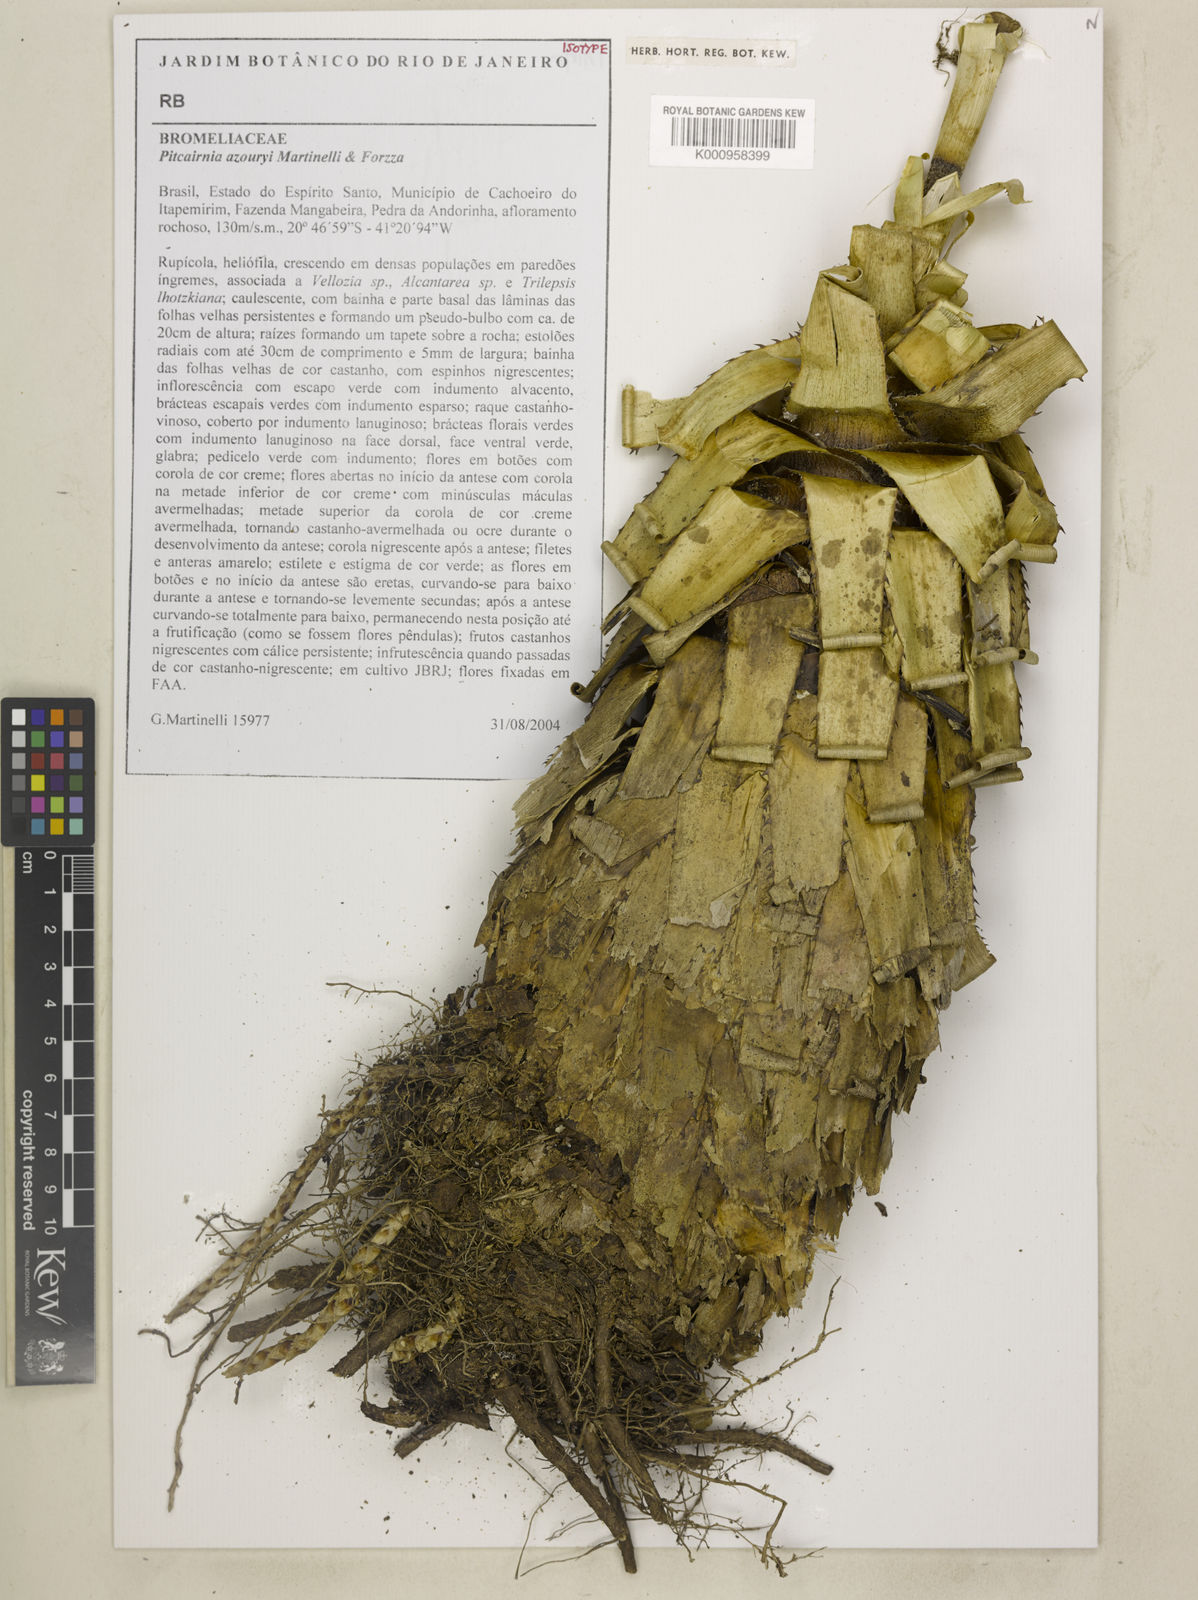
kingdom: Plantae
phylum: Tracheophyta
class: Liliopsida
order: Poales
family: Bromeliaceae
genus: Pitcairnia
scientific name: Pitcairnia azouryi
